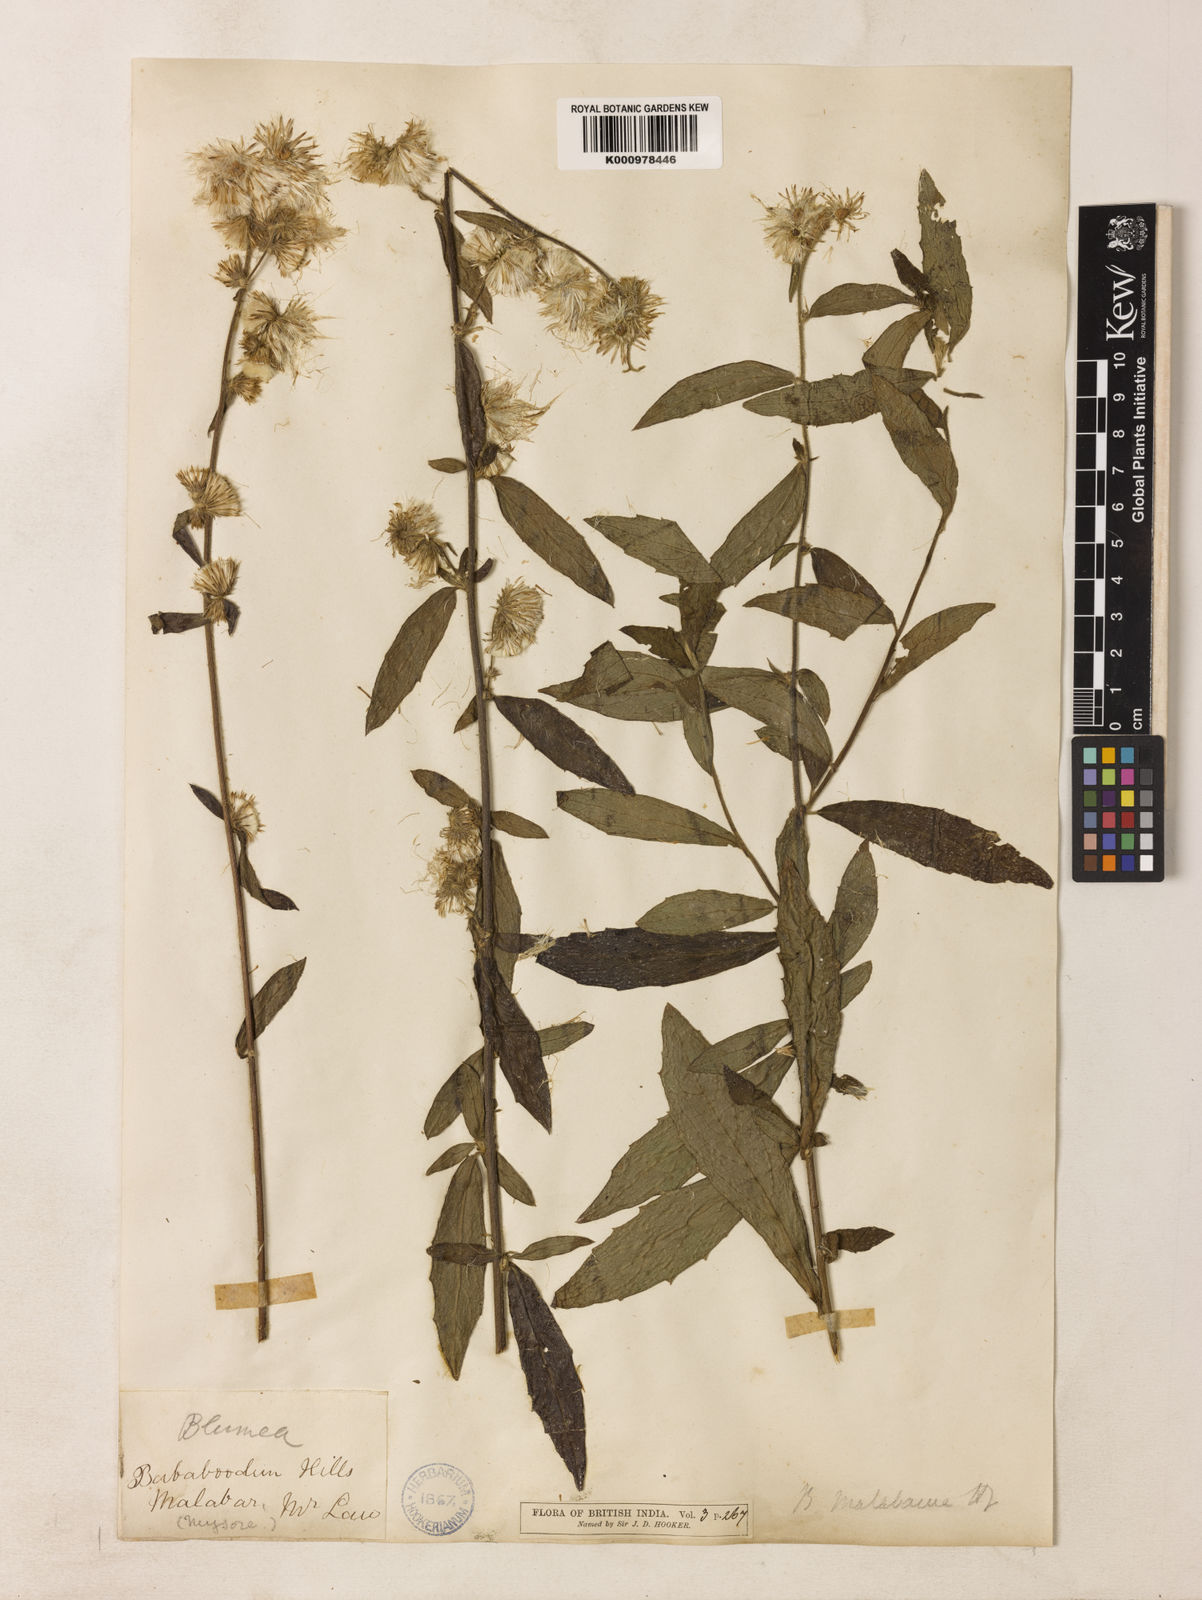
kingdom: Plantae
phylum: Tracheophyta
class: Magnoliopsida
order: Asterales
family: Asteraceae
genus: Blumea
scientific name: Blumea hirsuta
